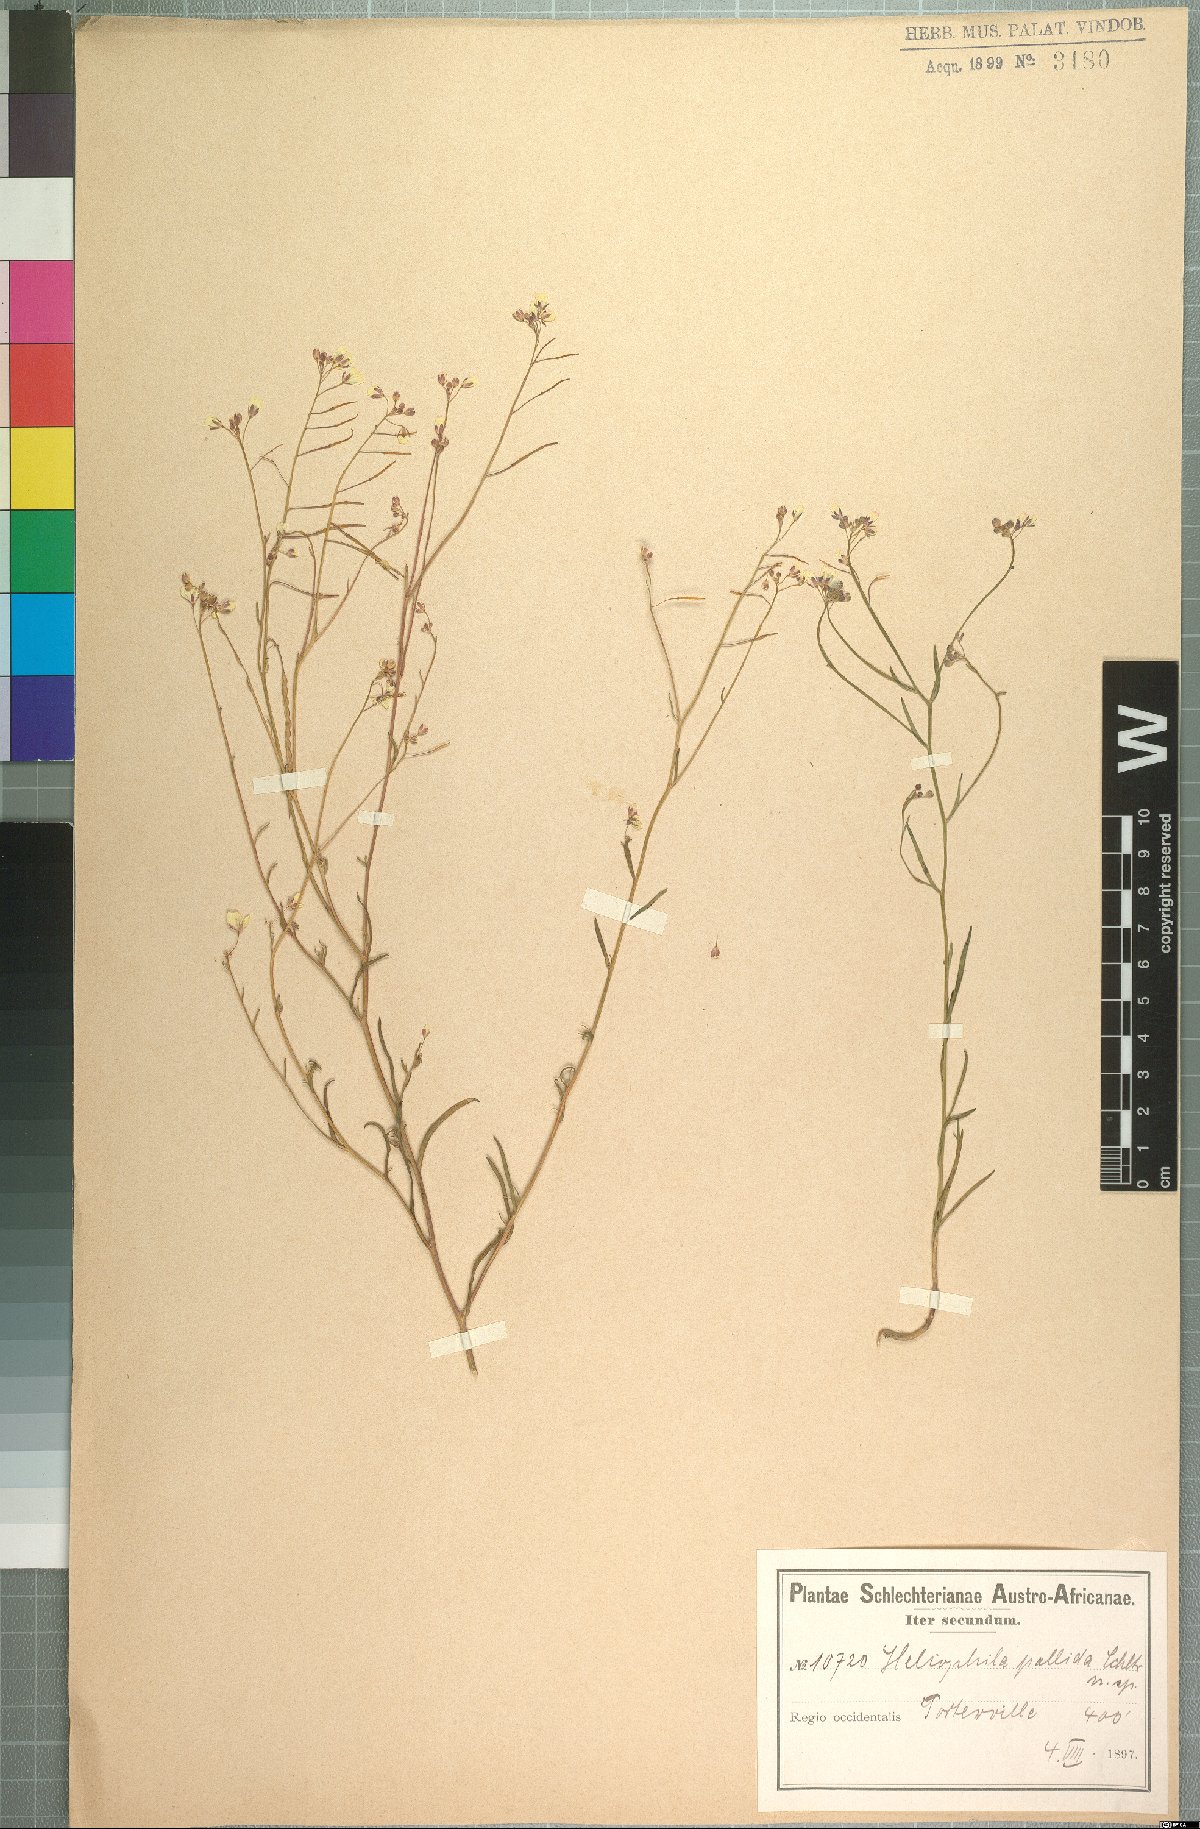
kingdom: Plantae
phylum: Tracheophyta
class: Magnoliopsida
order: Brassicales
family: Brassicaceae
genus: Heliophila
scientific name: Heliophila acuminata
